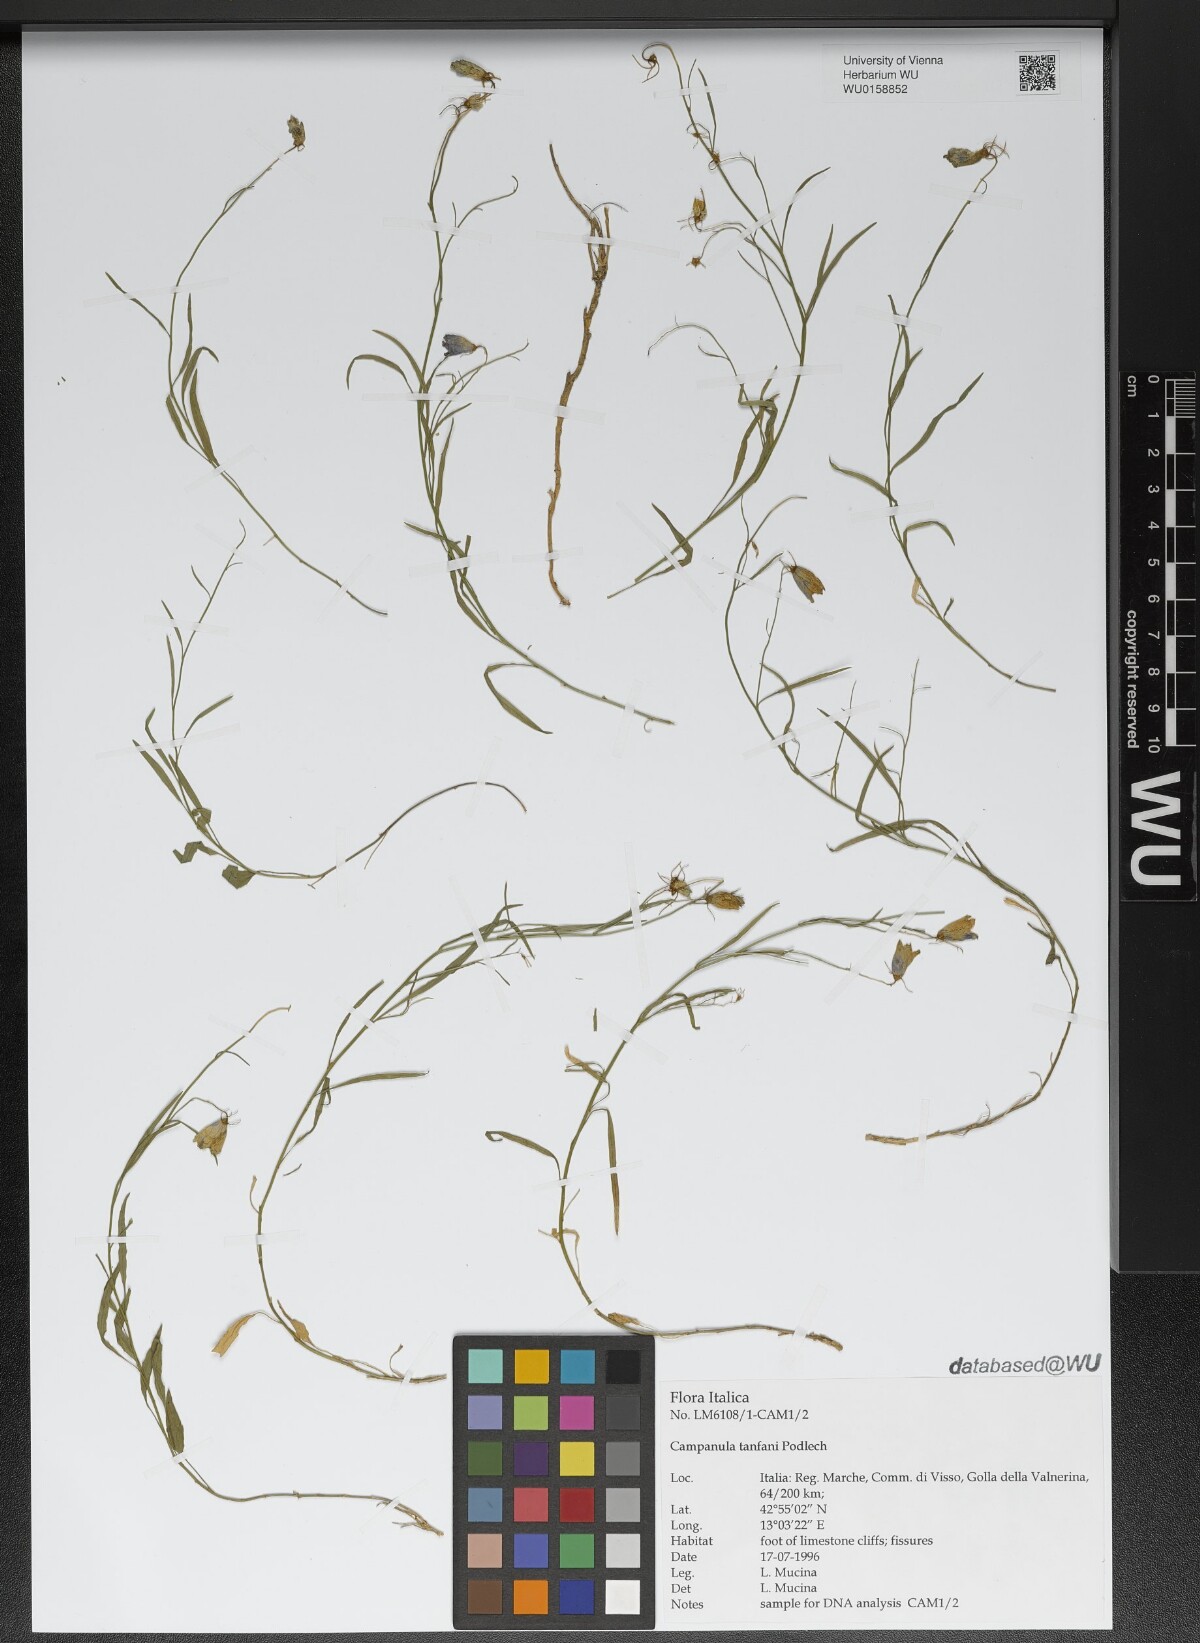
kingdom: Plantae
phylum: Tracheophyta
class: Magnoliopsida
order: Asterales
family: Campanulaceae
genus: Campanula
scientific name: Campanula tanfanii
